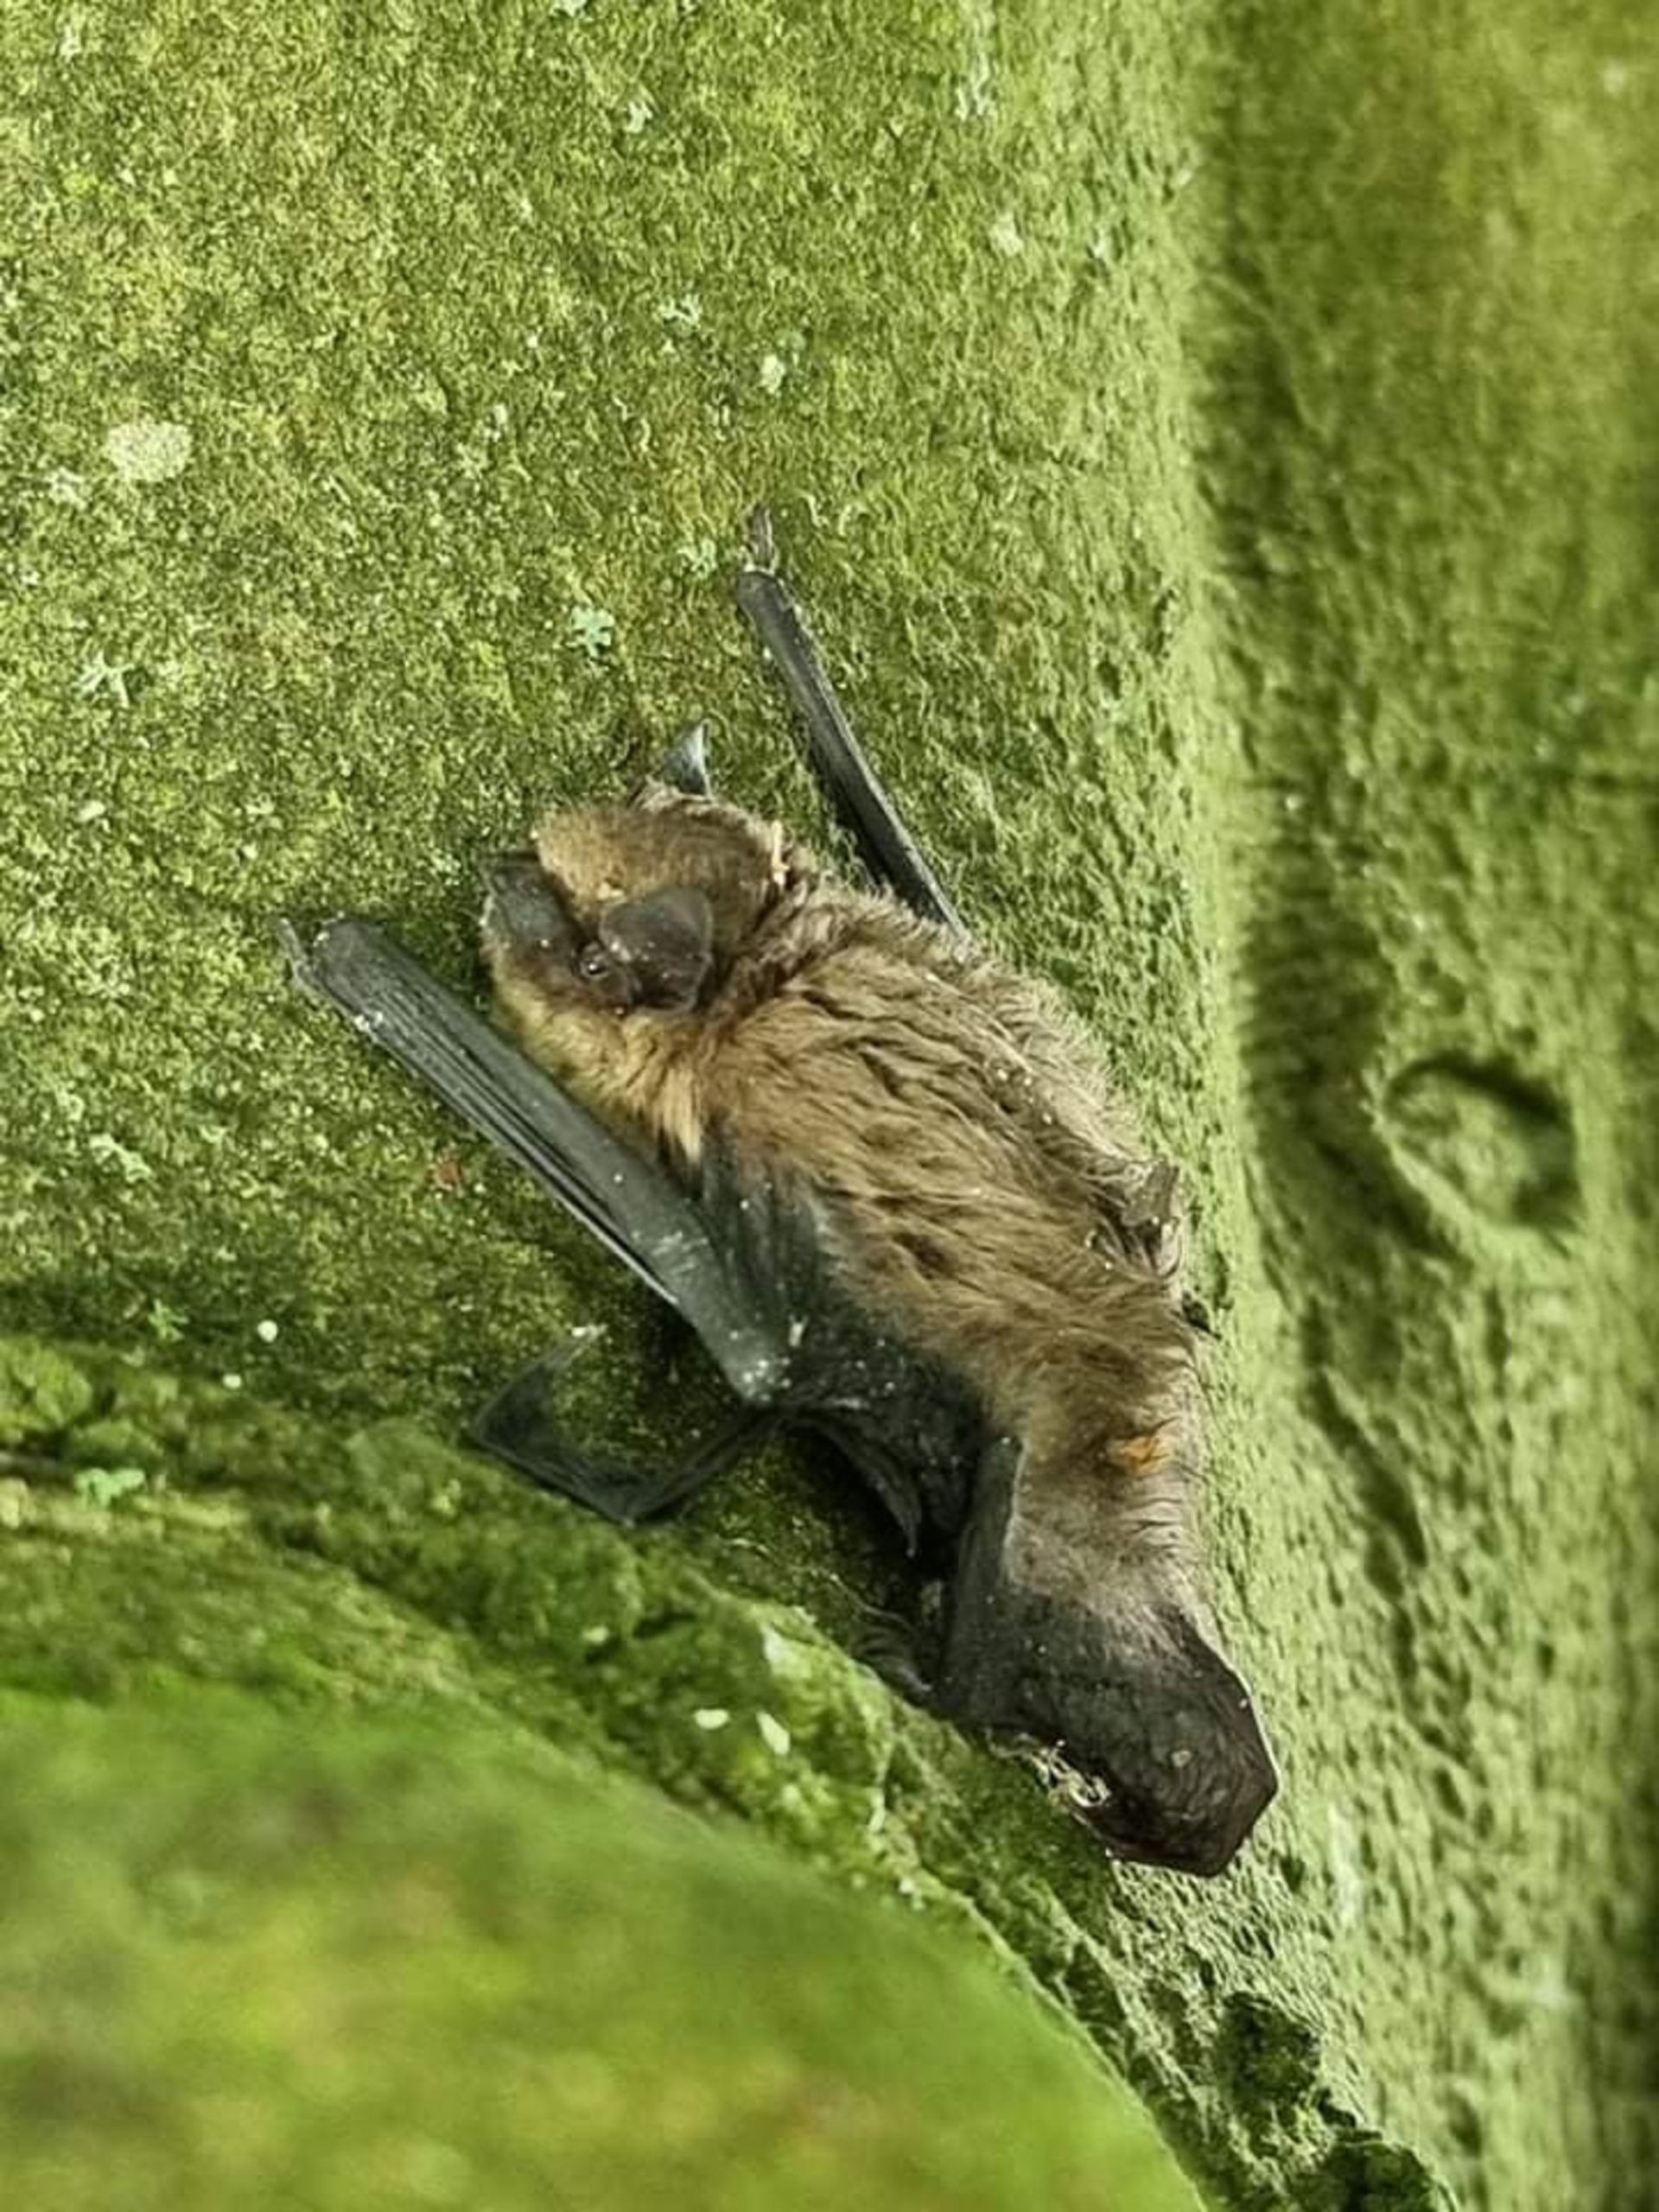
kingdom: Animalia
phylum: Chordata
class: Mammalia
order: Chiroptera
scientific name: Chiroptera
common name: Flagermus
